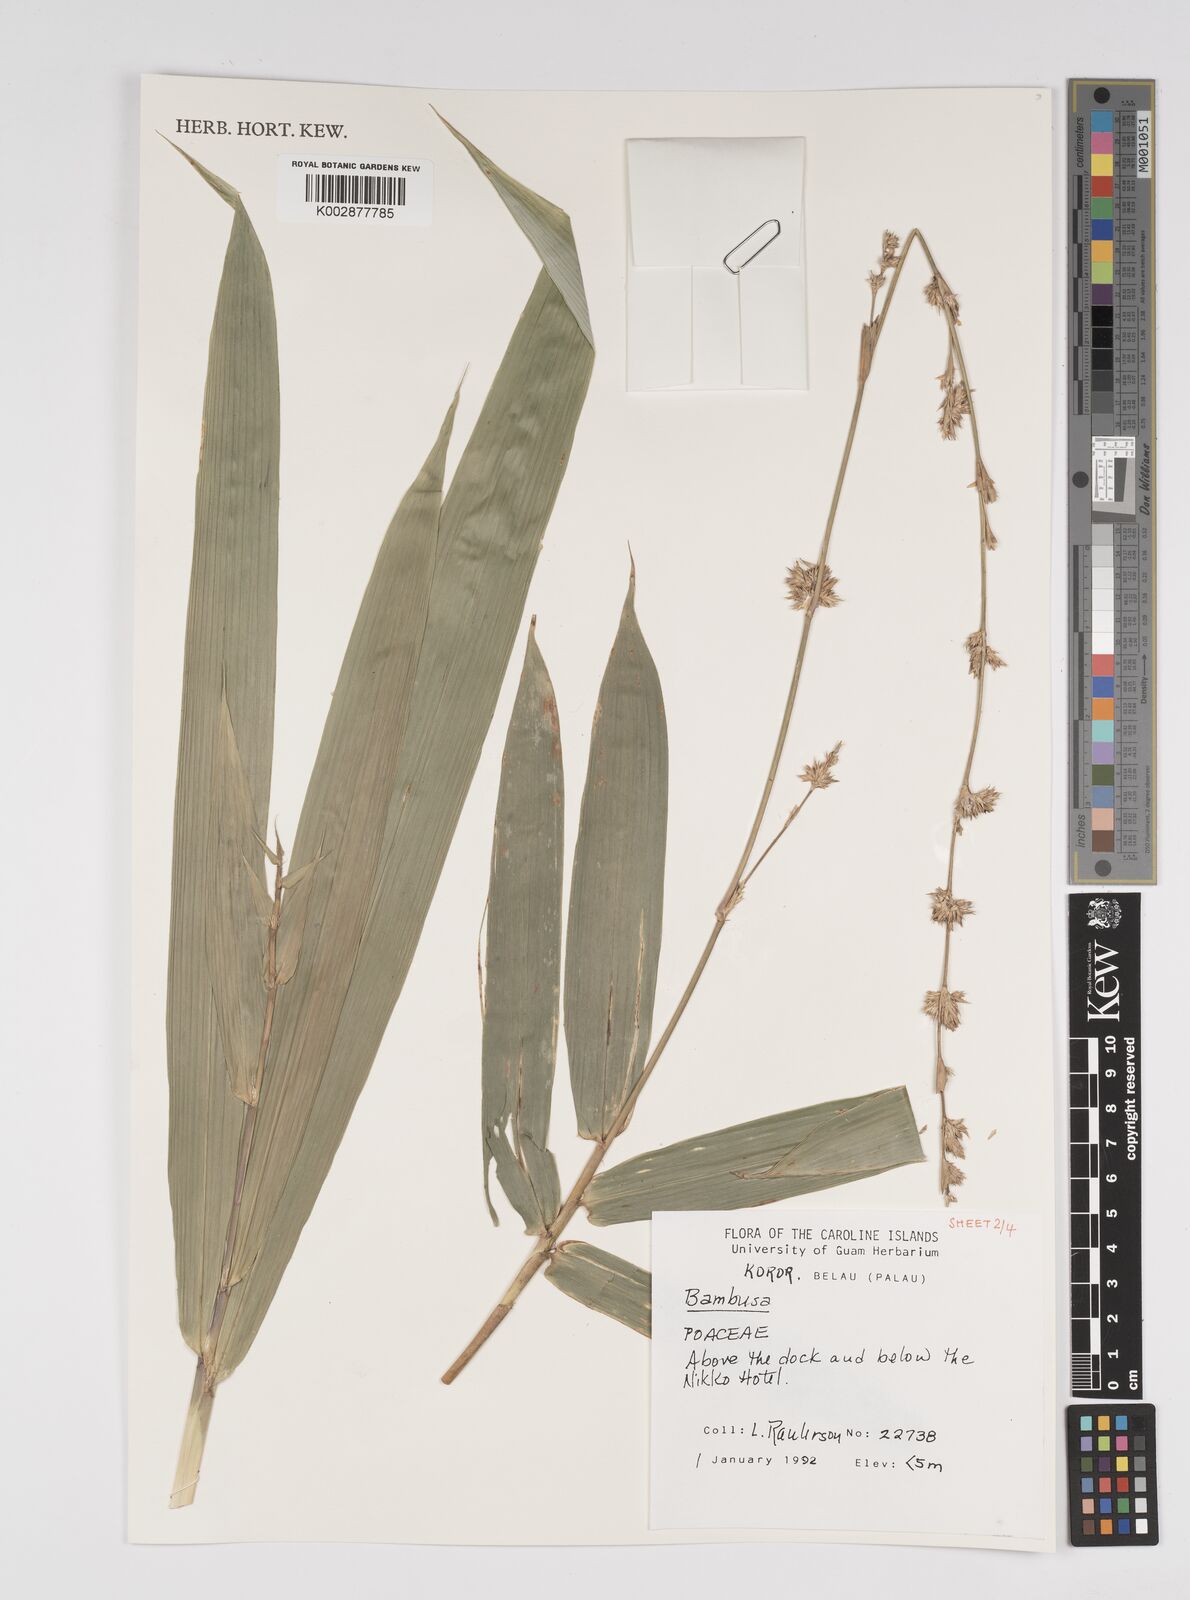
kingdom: Plantae
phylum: Tracheophyta
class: Liliopsida
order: Poales
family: Poaceae
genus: Bambusa
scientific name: Bambusa
